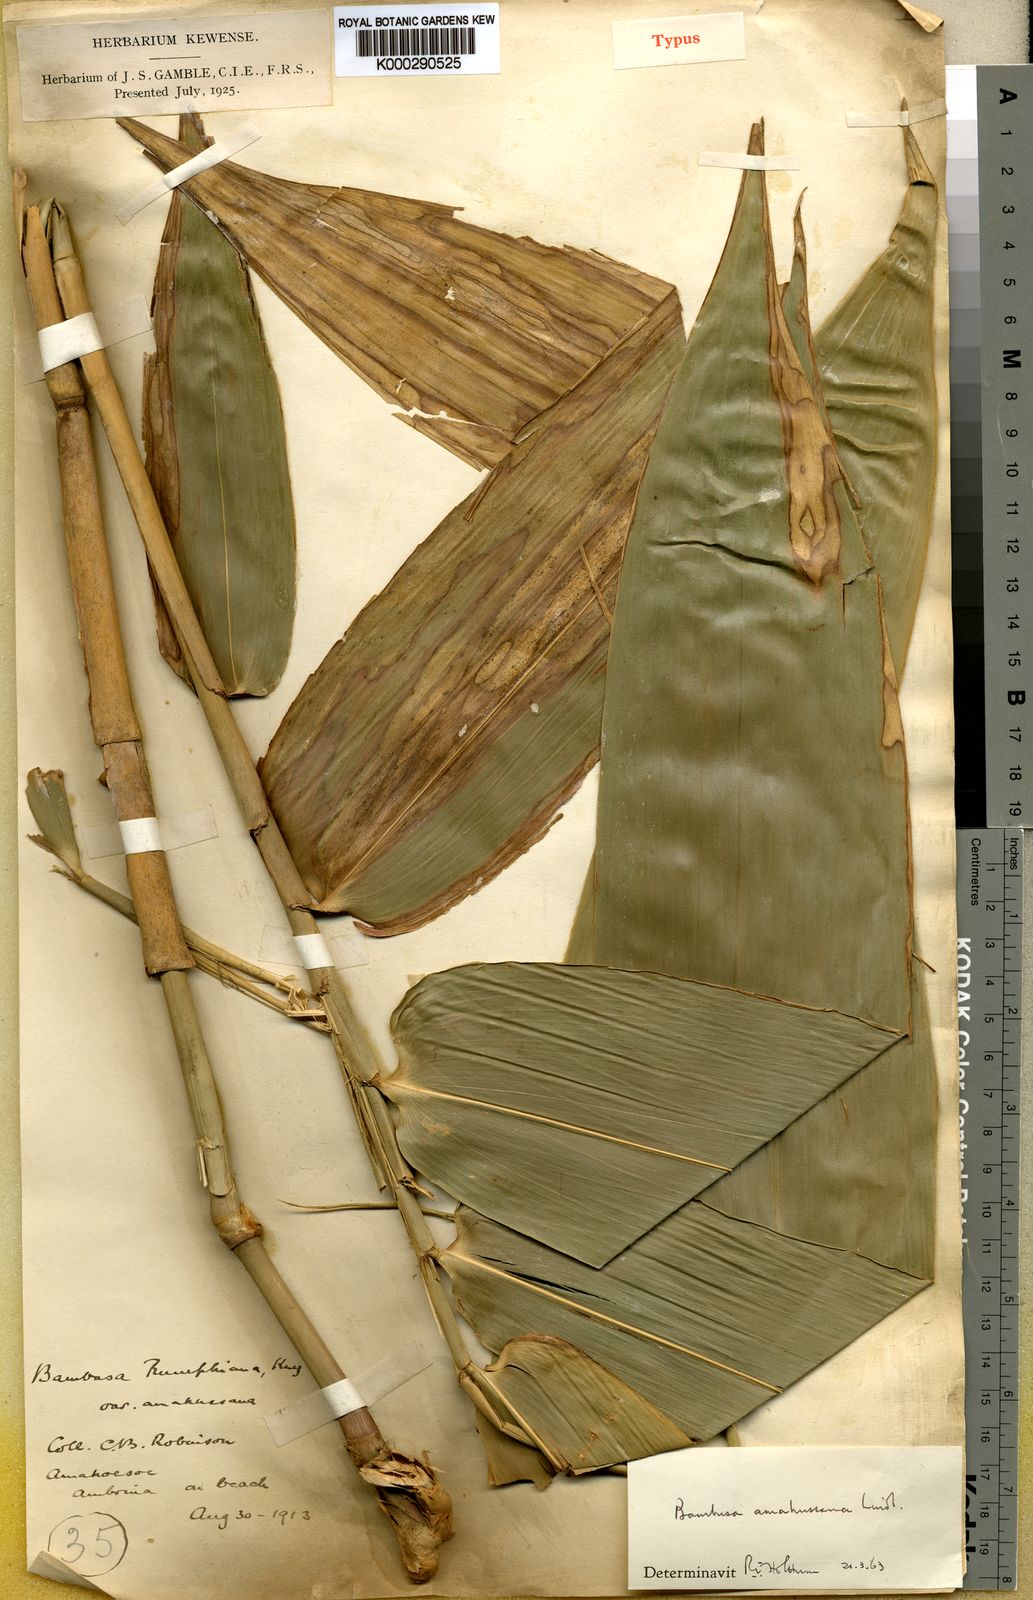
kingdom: Plantae
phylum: Tracheophyta
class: Liliopsida
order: Poales
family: Poaceae
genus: Neololeba
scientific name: Neololeba amahussana
